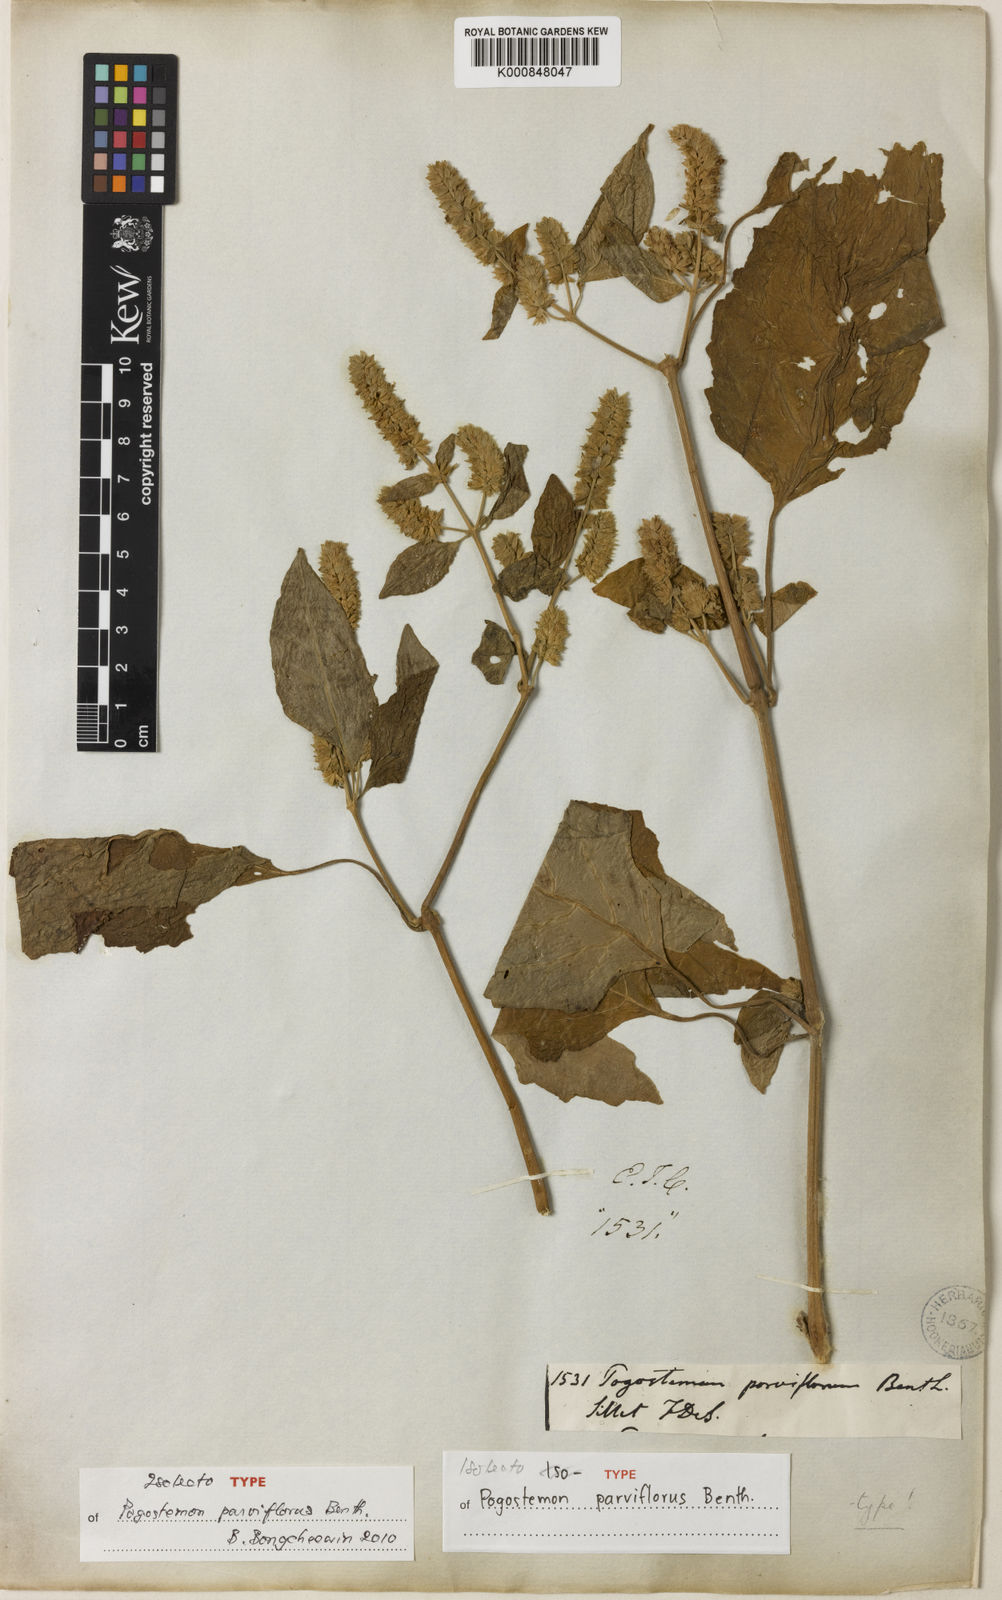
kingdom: Plantae
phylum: Tracheophyta
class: Magnoliopsida
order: Lamiales
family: Lamiaceae
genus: Pogostemon
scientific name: Pogostemon
